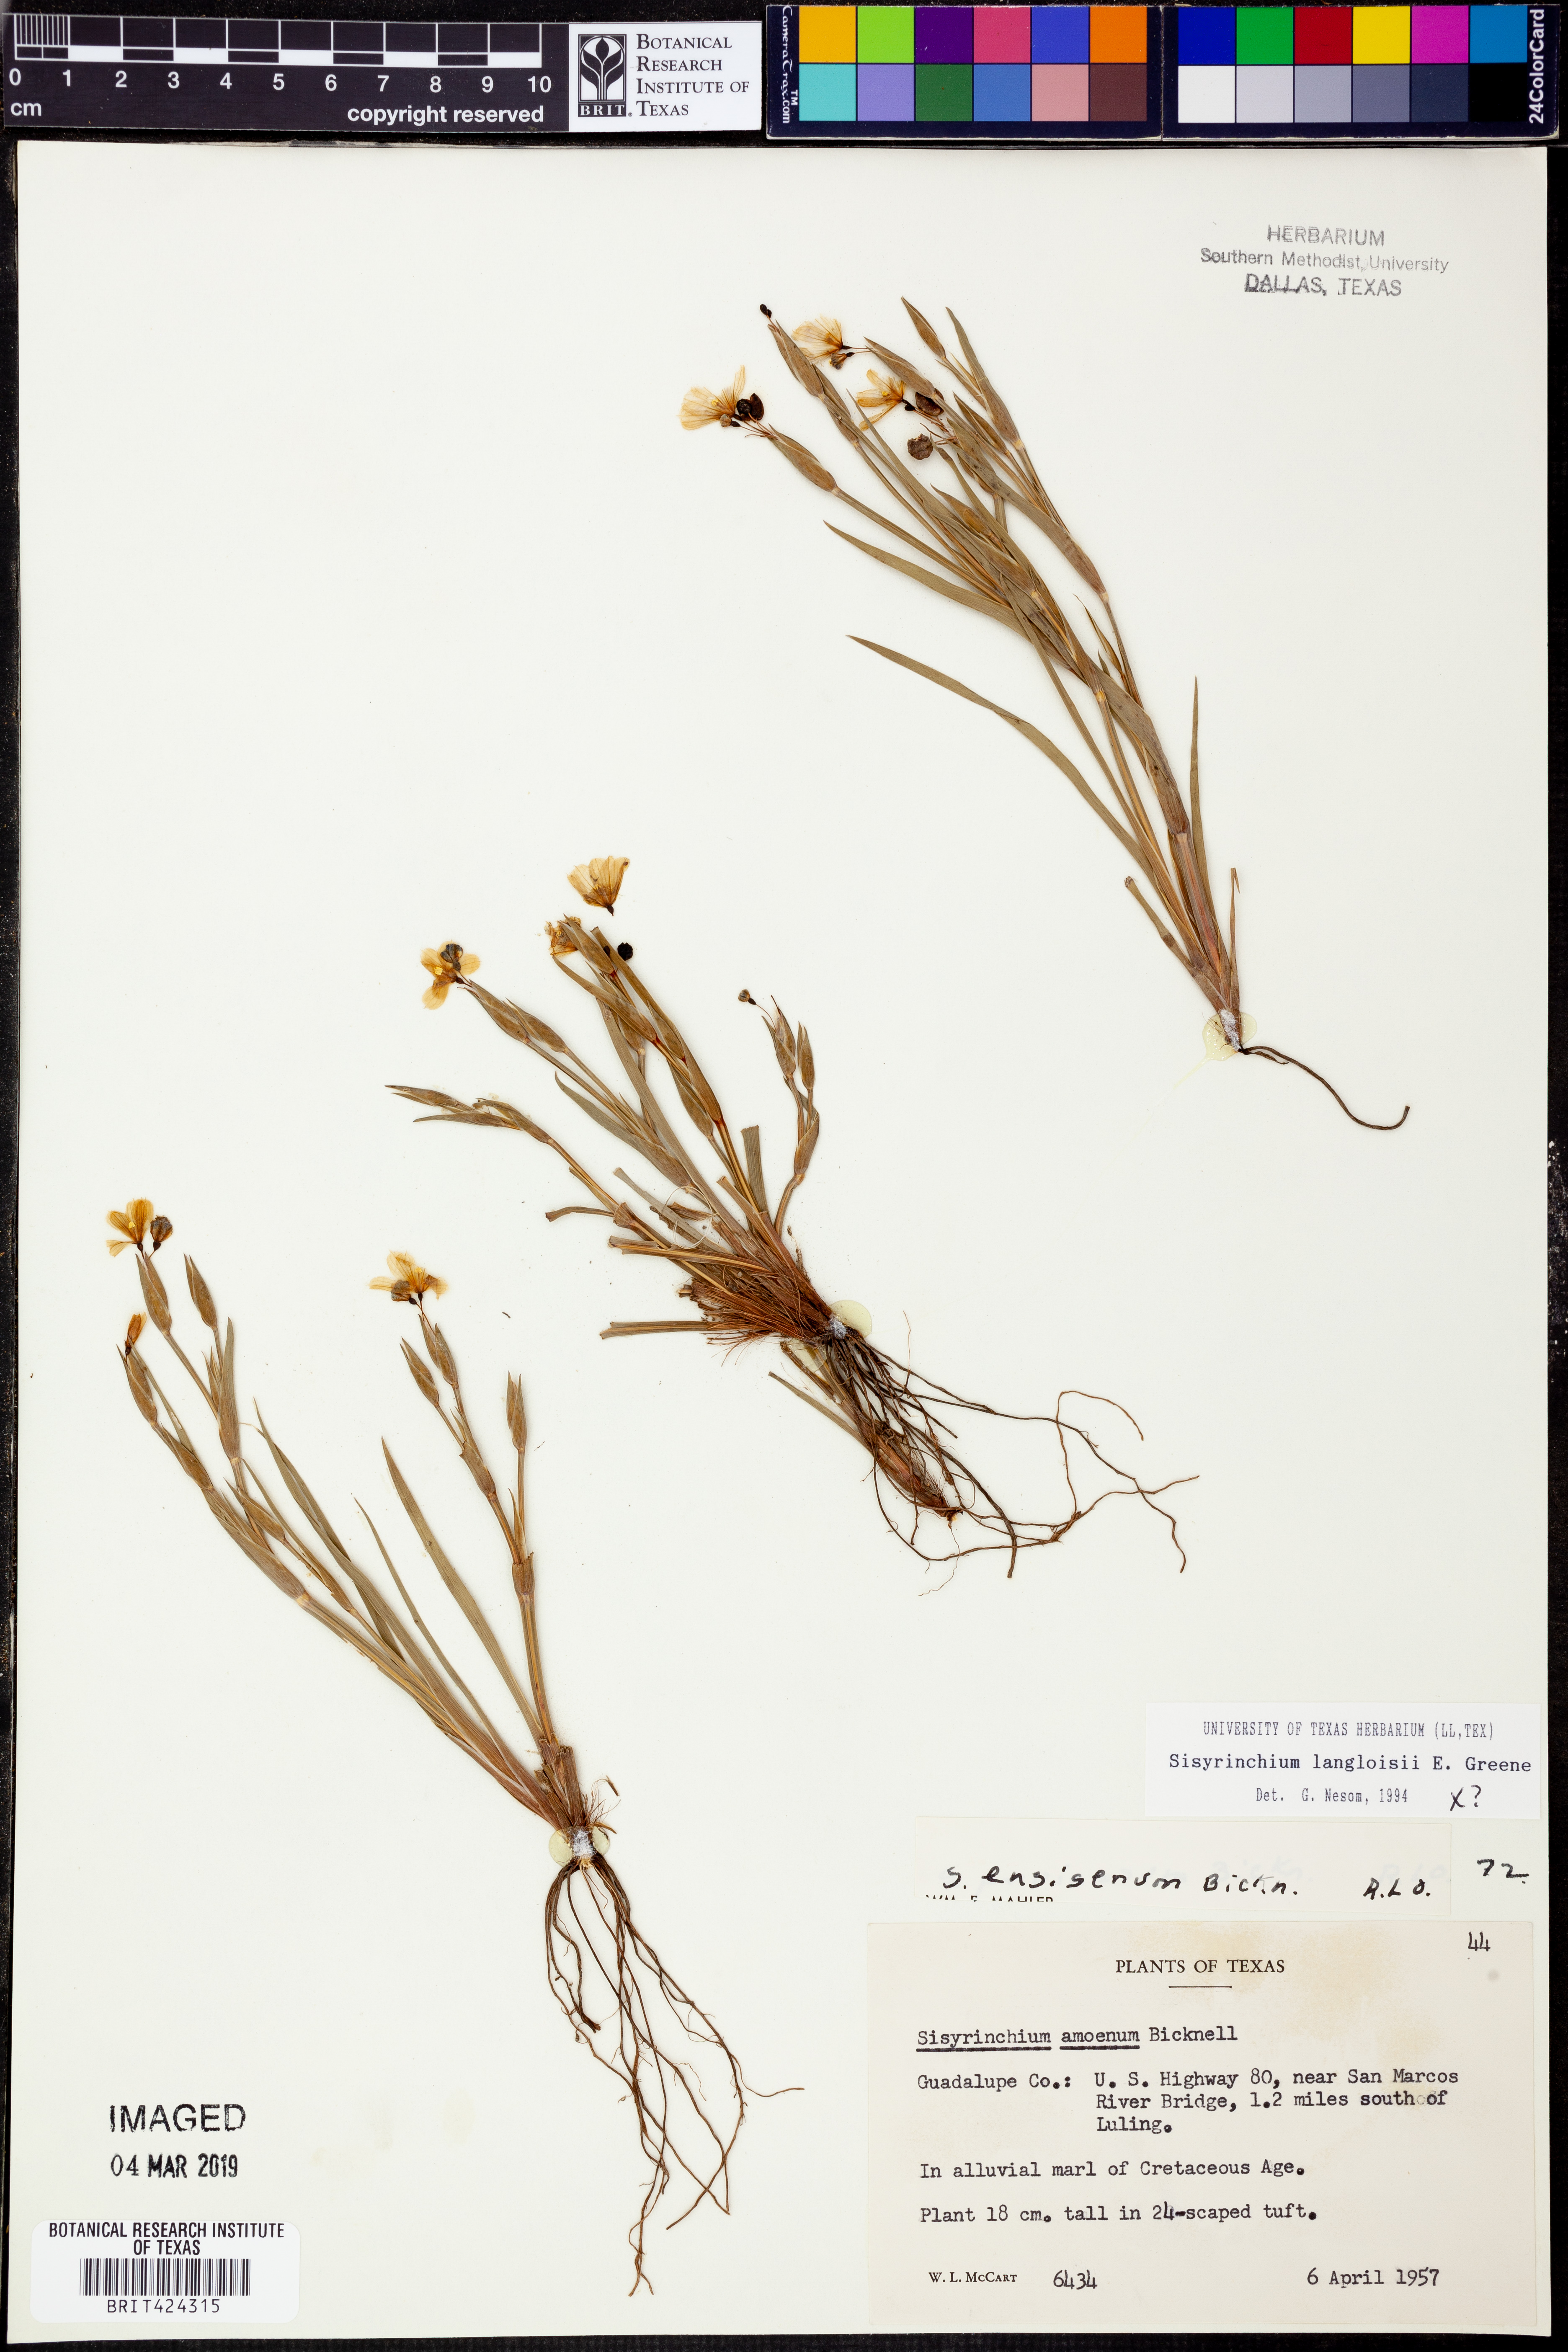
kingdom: Plantae
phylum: Tracheophyta
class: Liliopsida
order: Asparagales
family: Iridaceae
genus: Sisyrinchium
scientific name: Sisyrinchium langloisii
